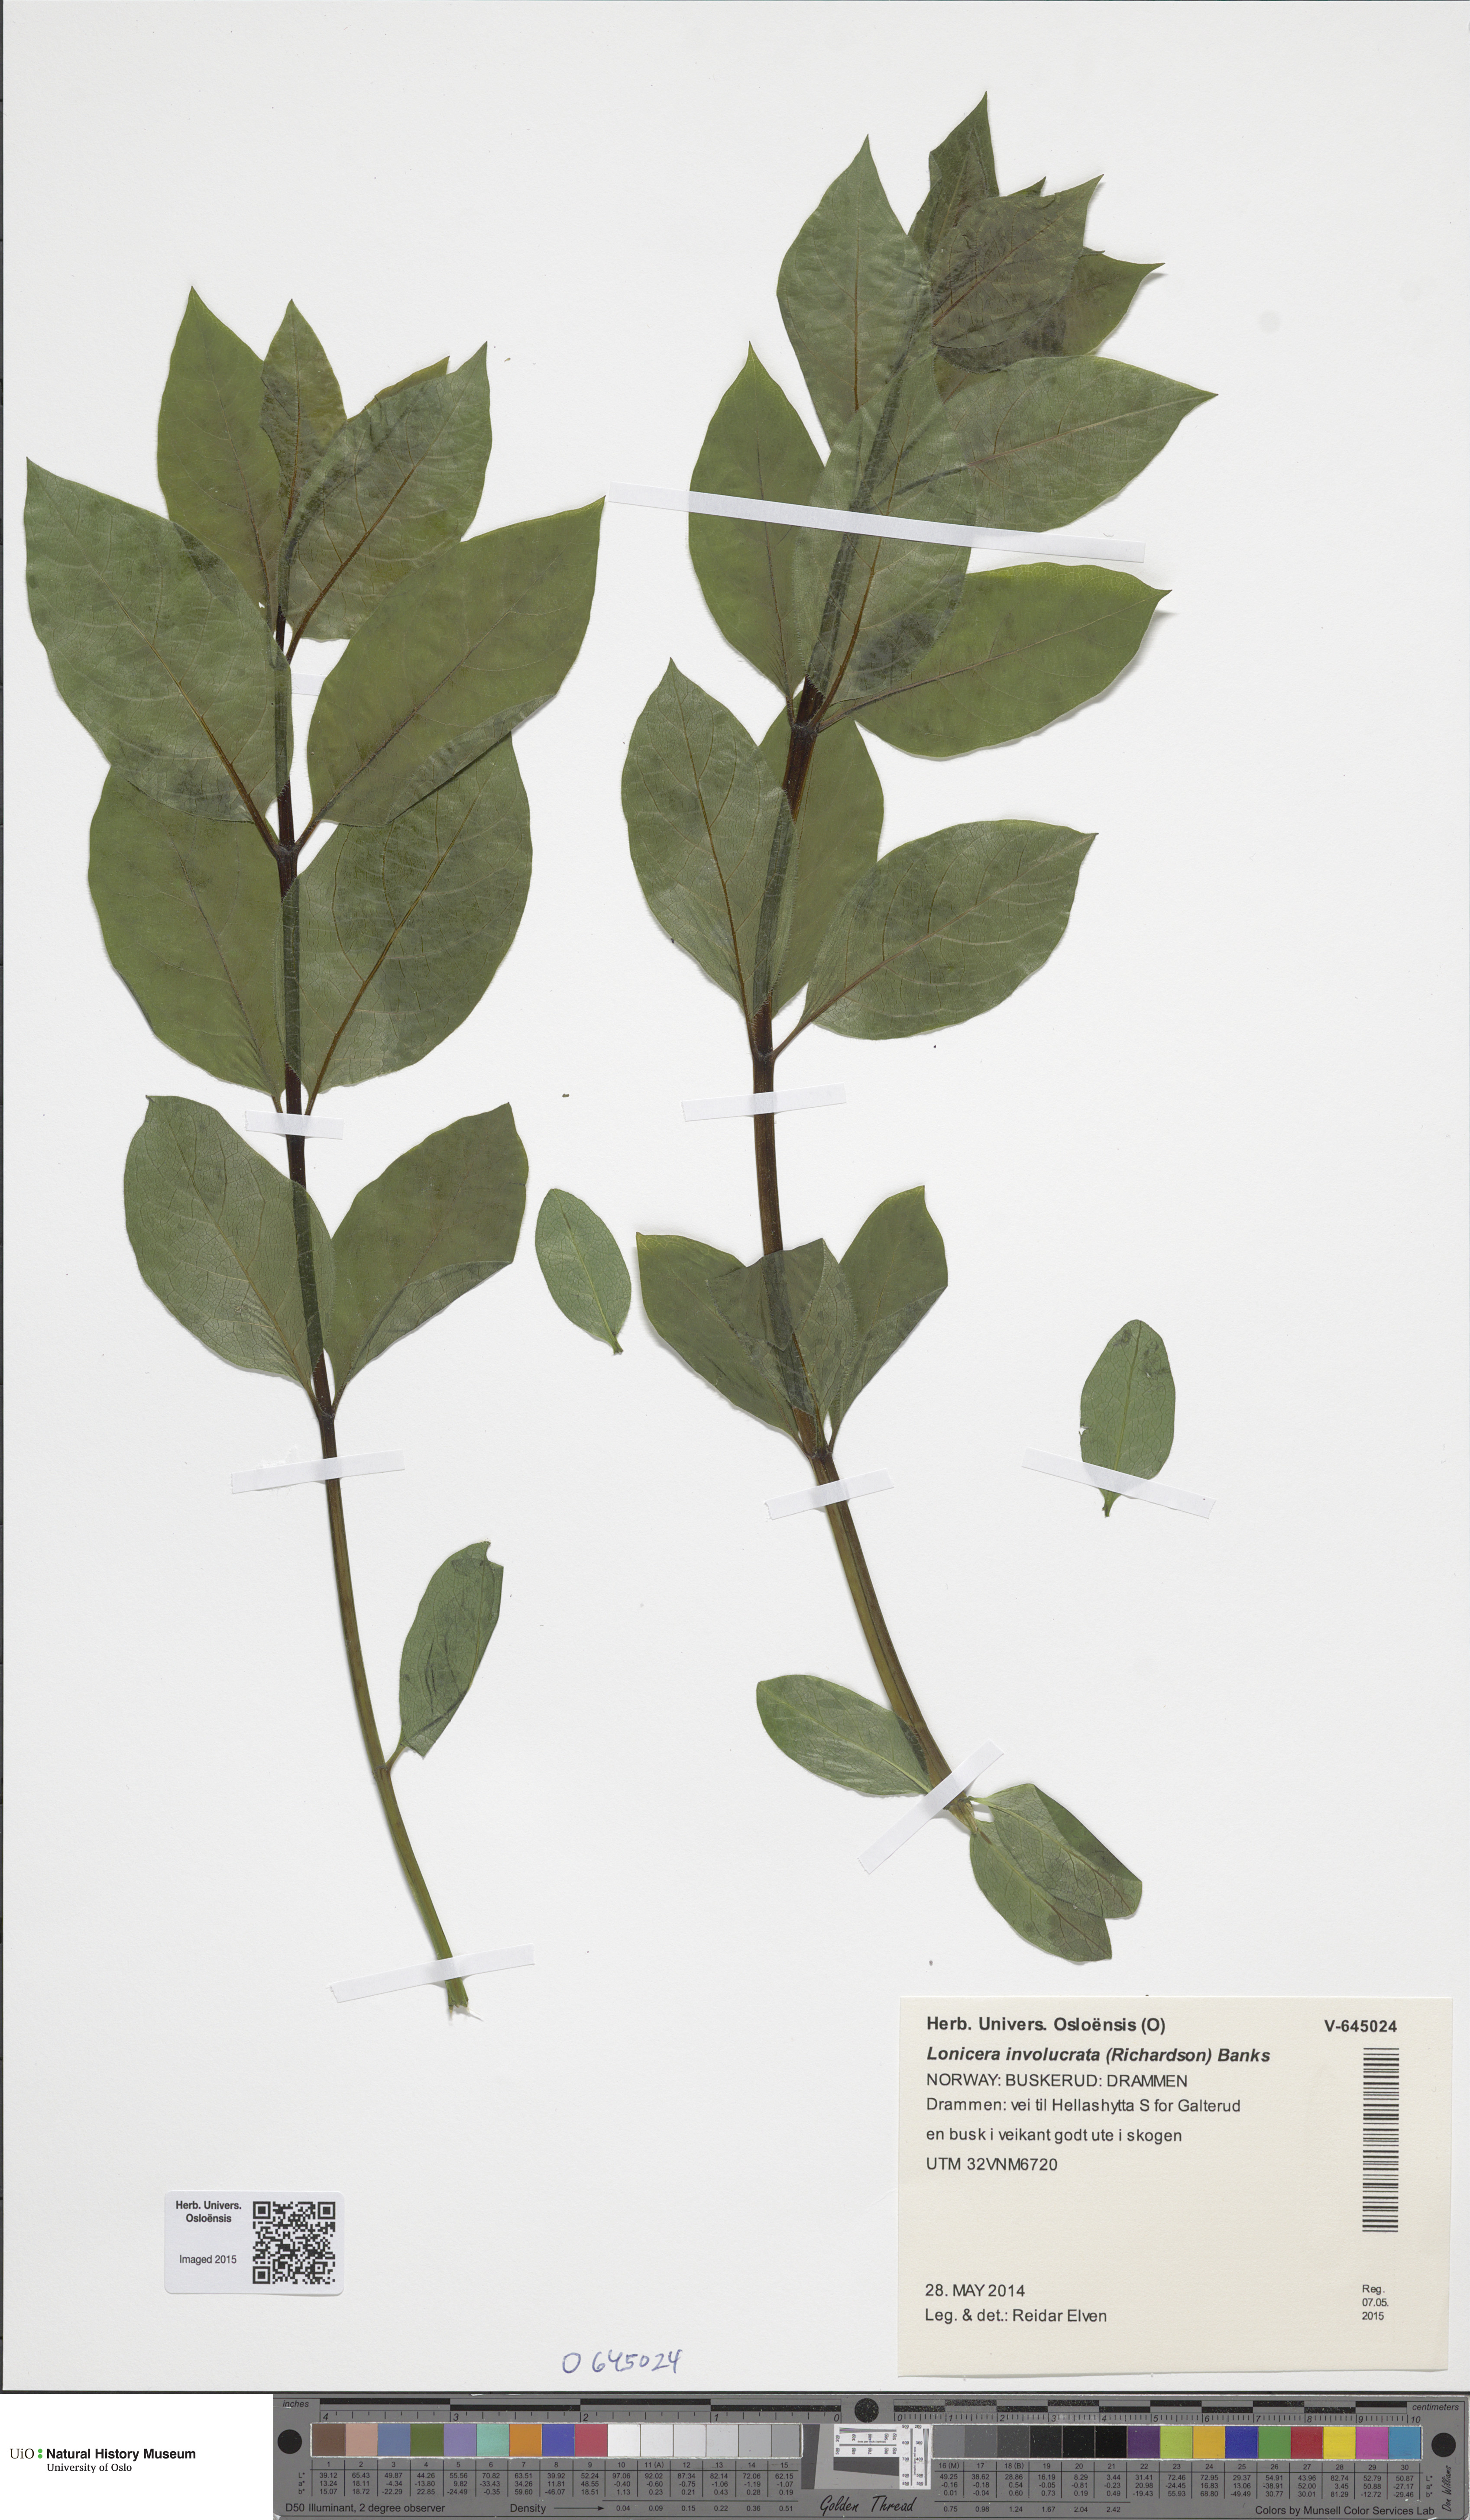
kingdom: Plantae
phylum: Tracheophyta
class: Magnoliopsida
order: Dipsacales
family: Caprifoliaceae
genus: Lonicera
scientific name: Lonicera involucrata
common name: Californian honeysuckle
